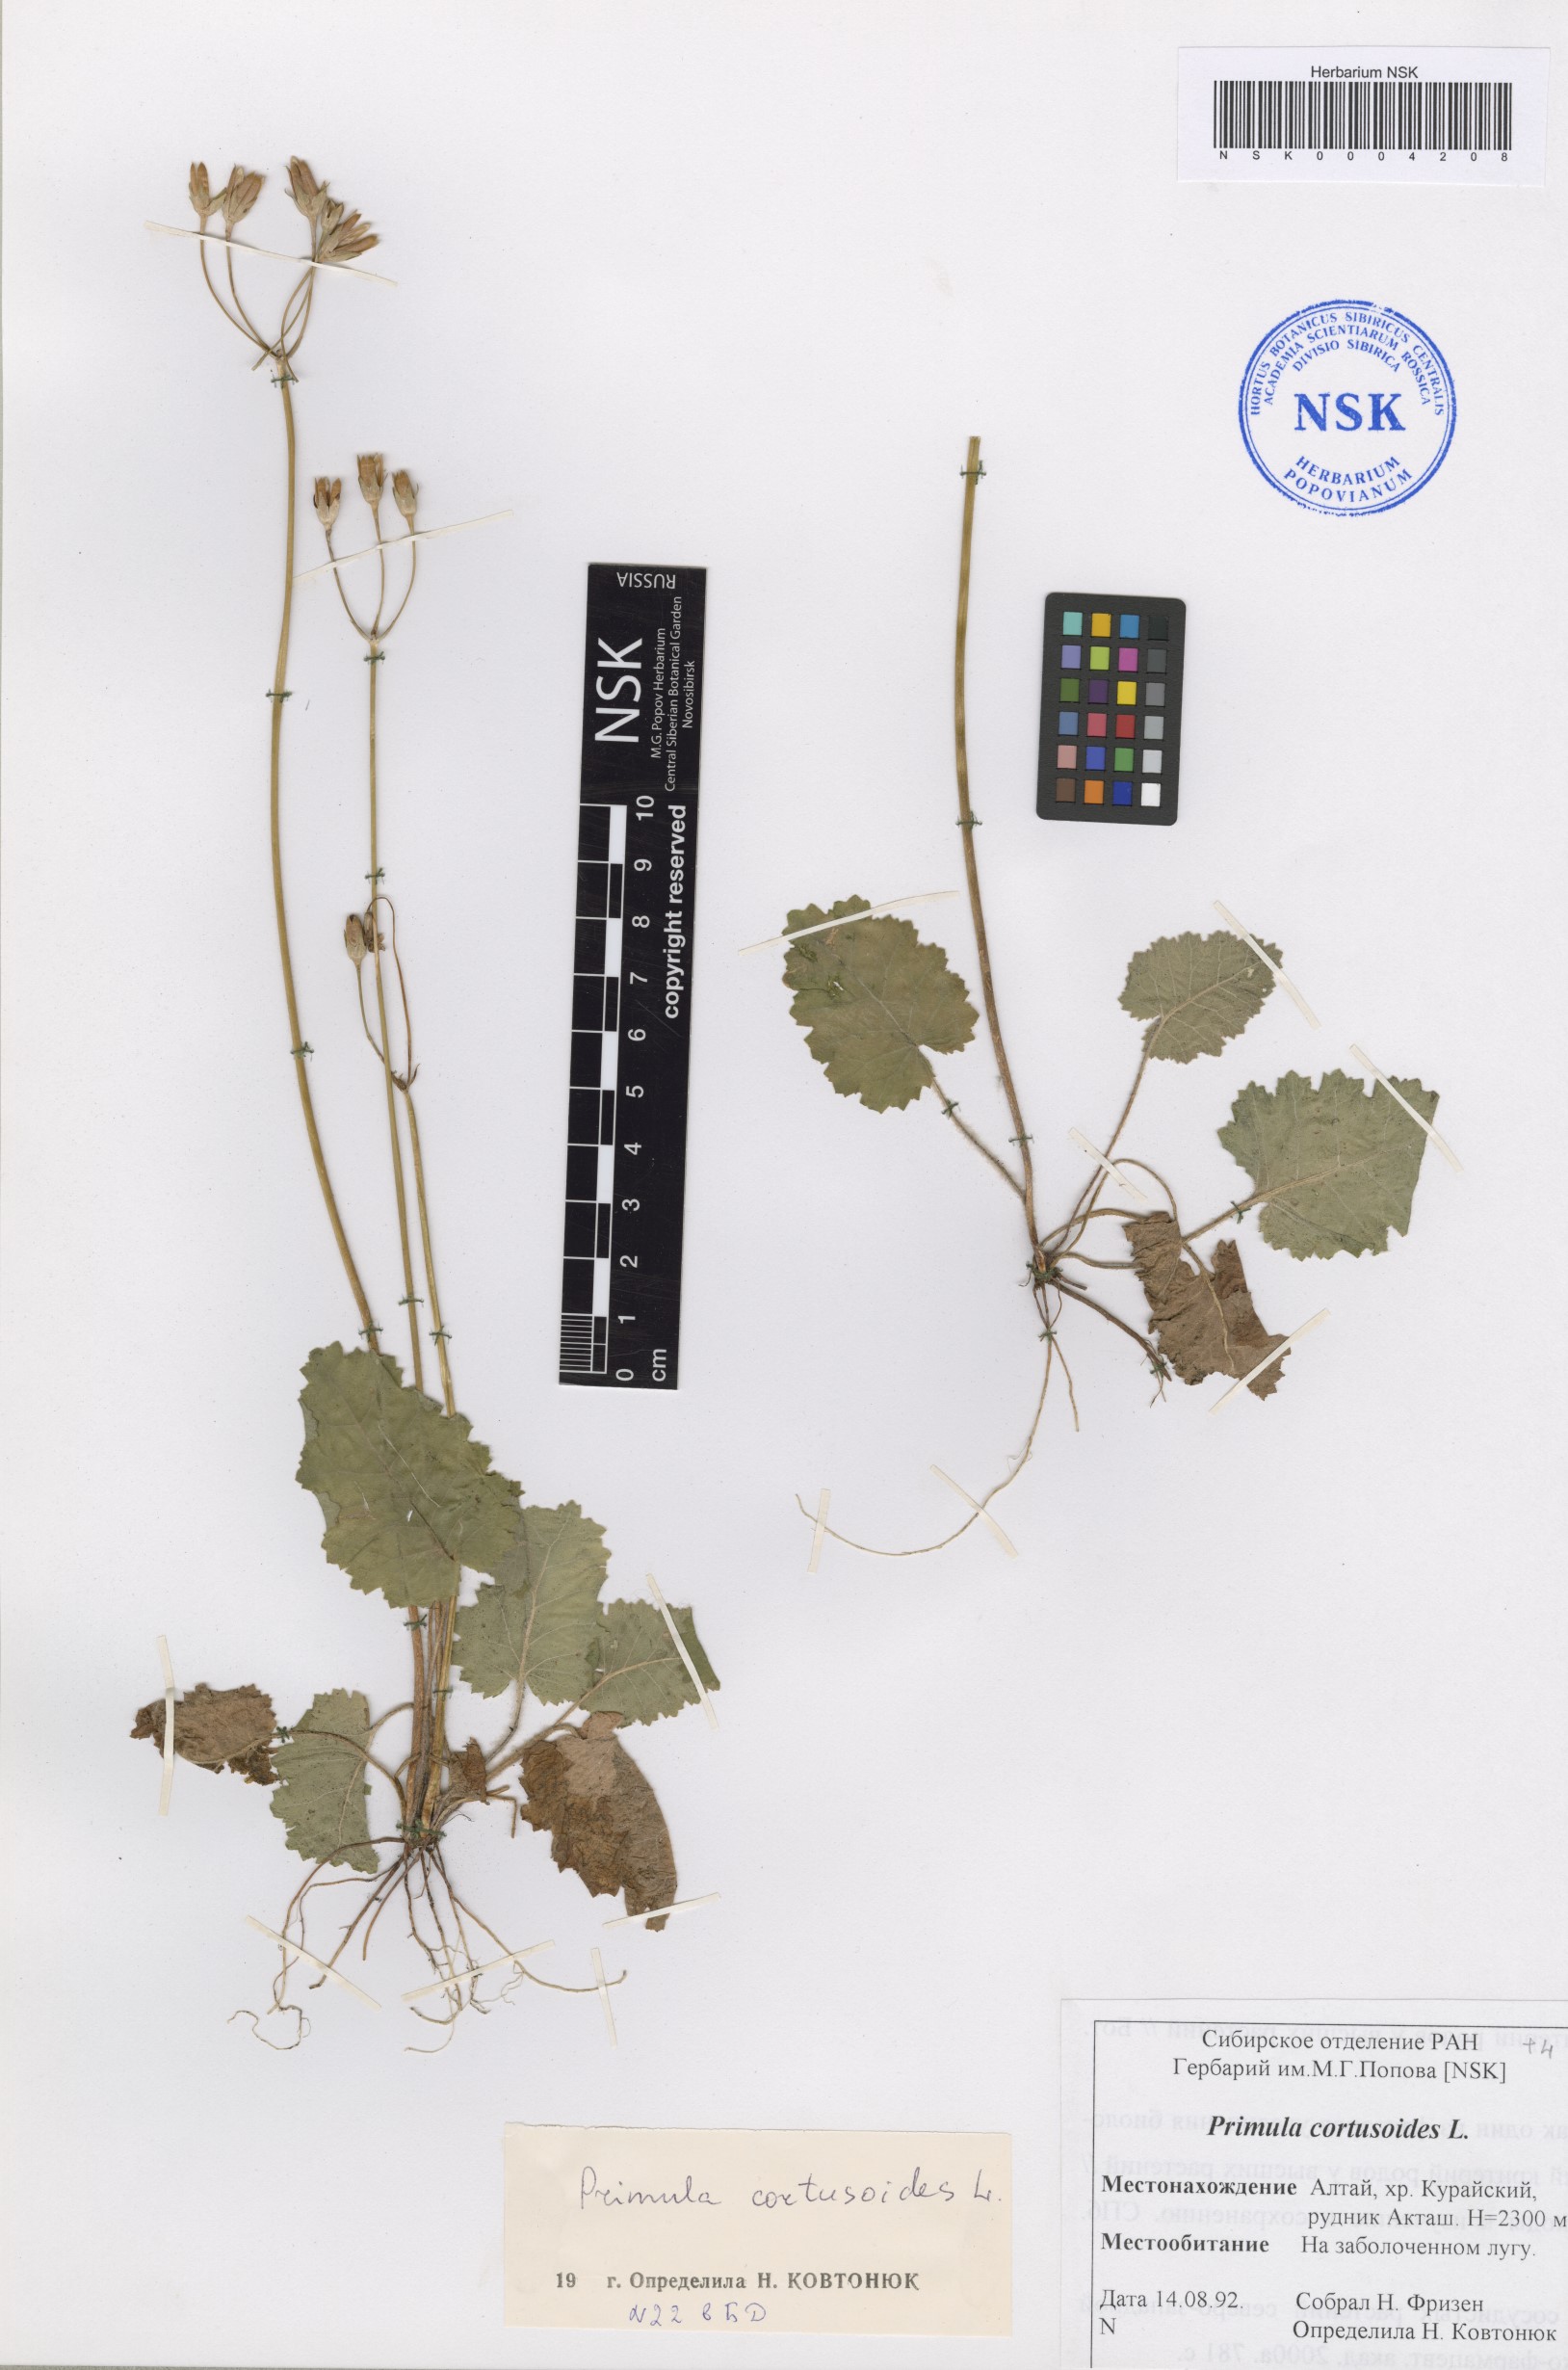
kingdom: Plantae
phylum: Tracheophyta
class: Magnoliopsida
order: Ericales
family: Primulaceae
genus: Primula
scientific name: Primula cortusoides
